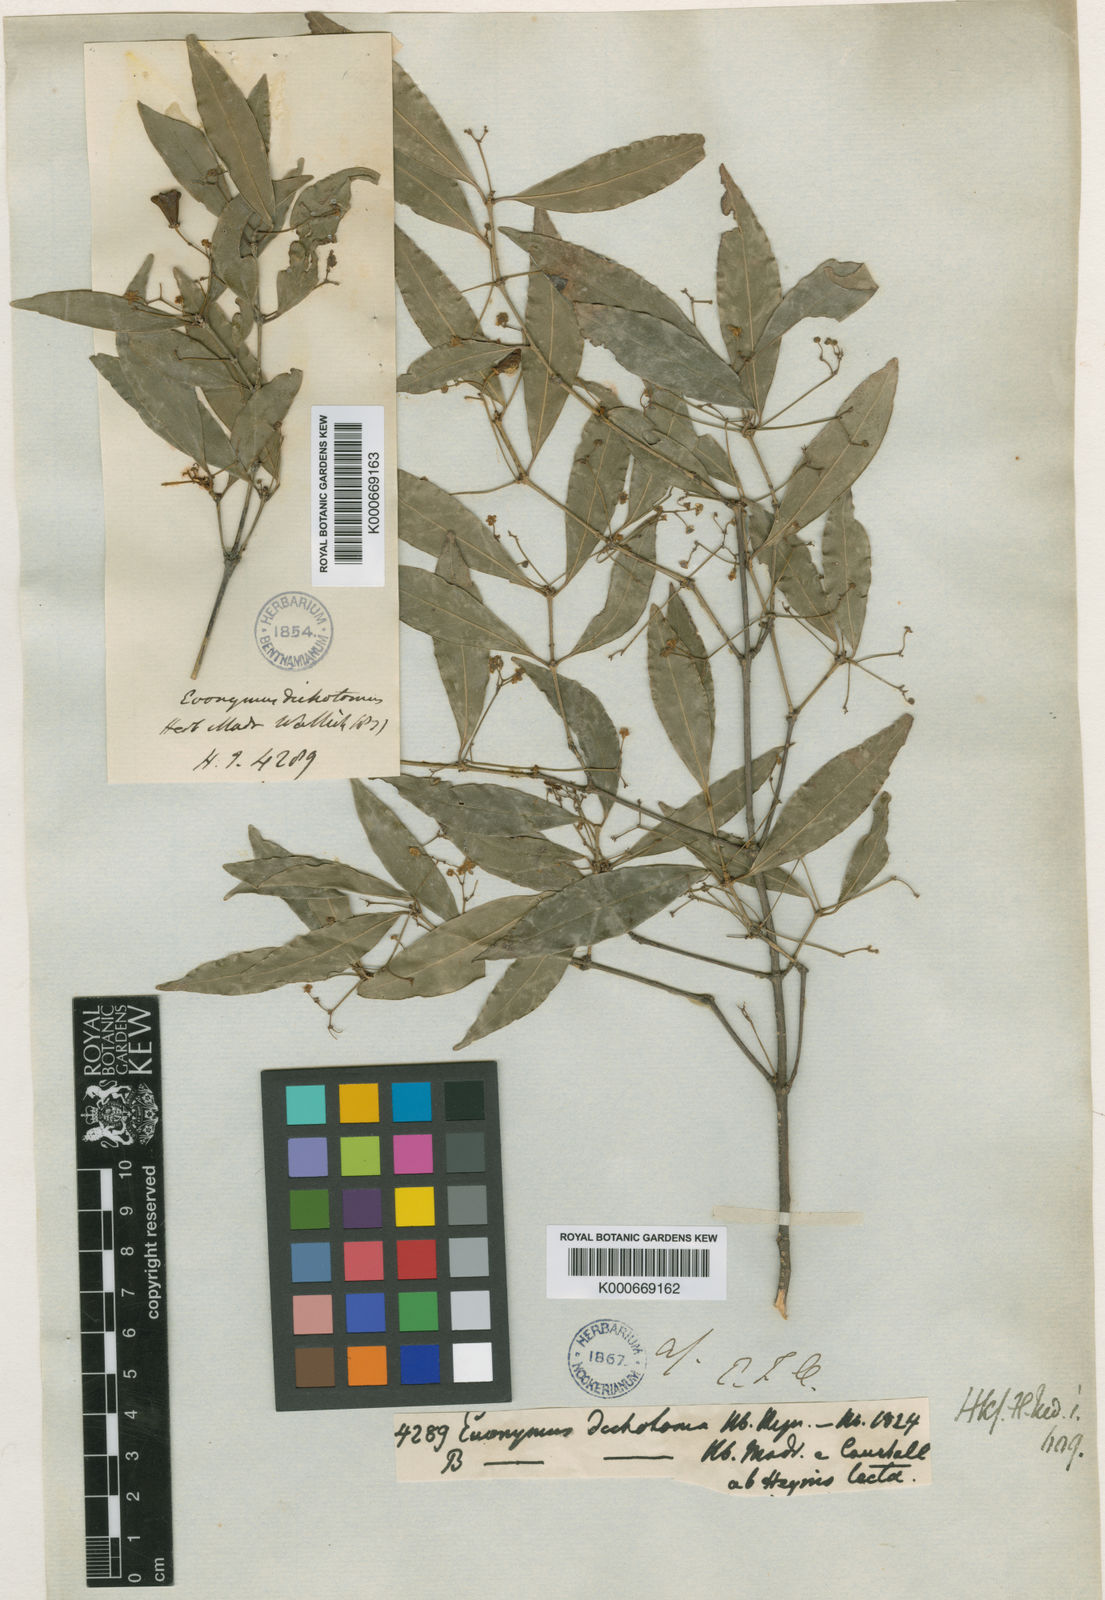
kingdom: Plantae
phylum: Tracheophyta
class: Magnoliopsida
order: Celastrales
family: Celastraceae
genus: Euonymus
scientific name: Euonymus dichotomus
